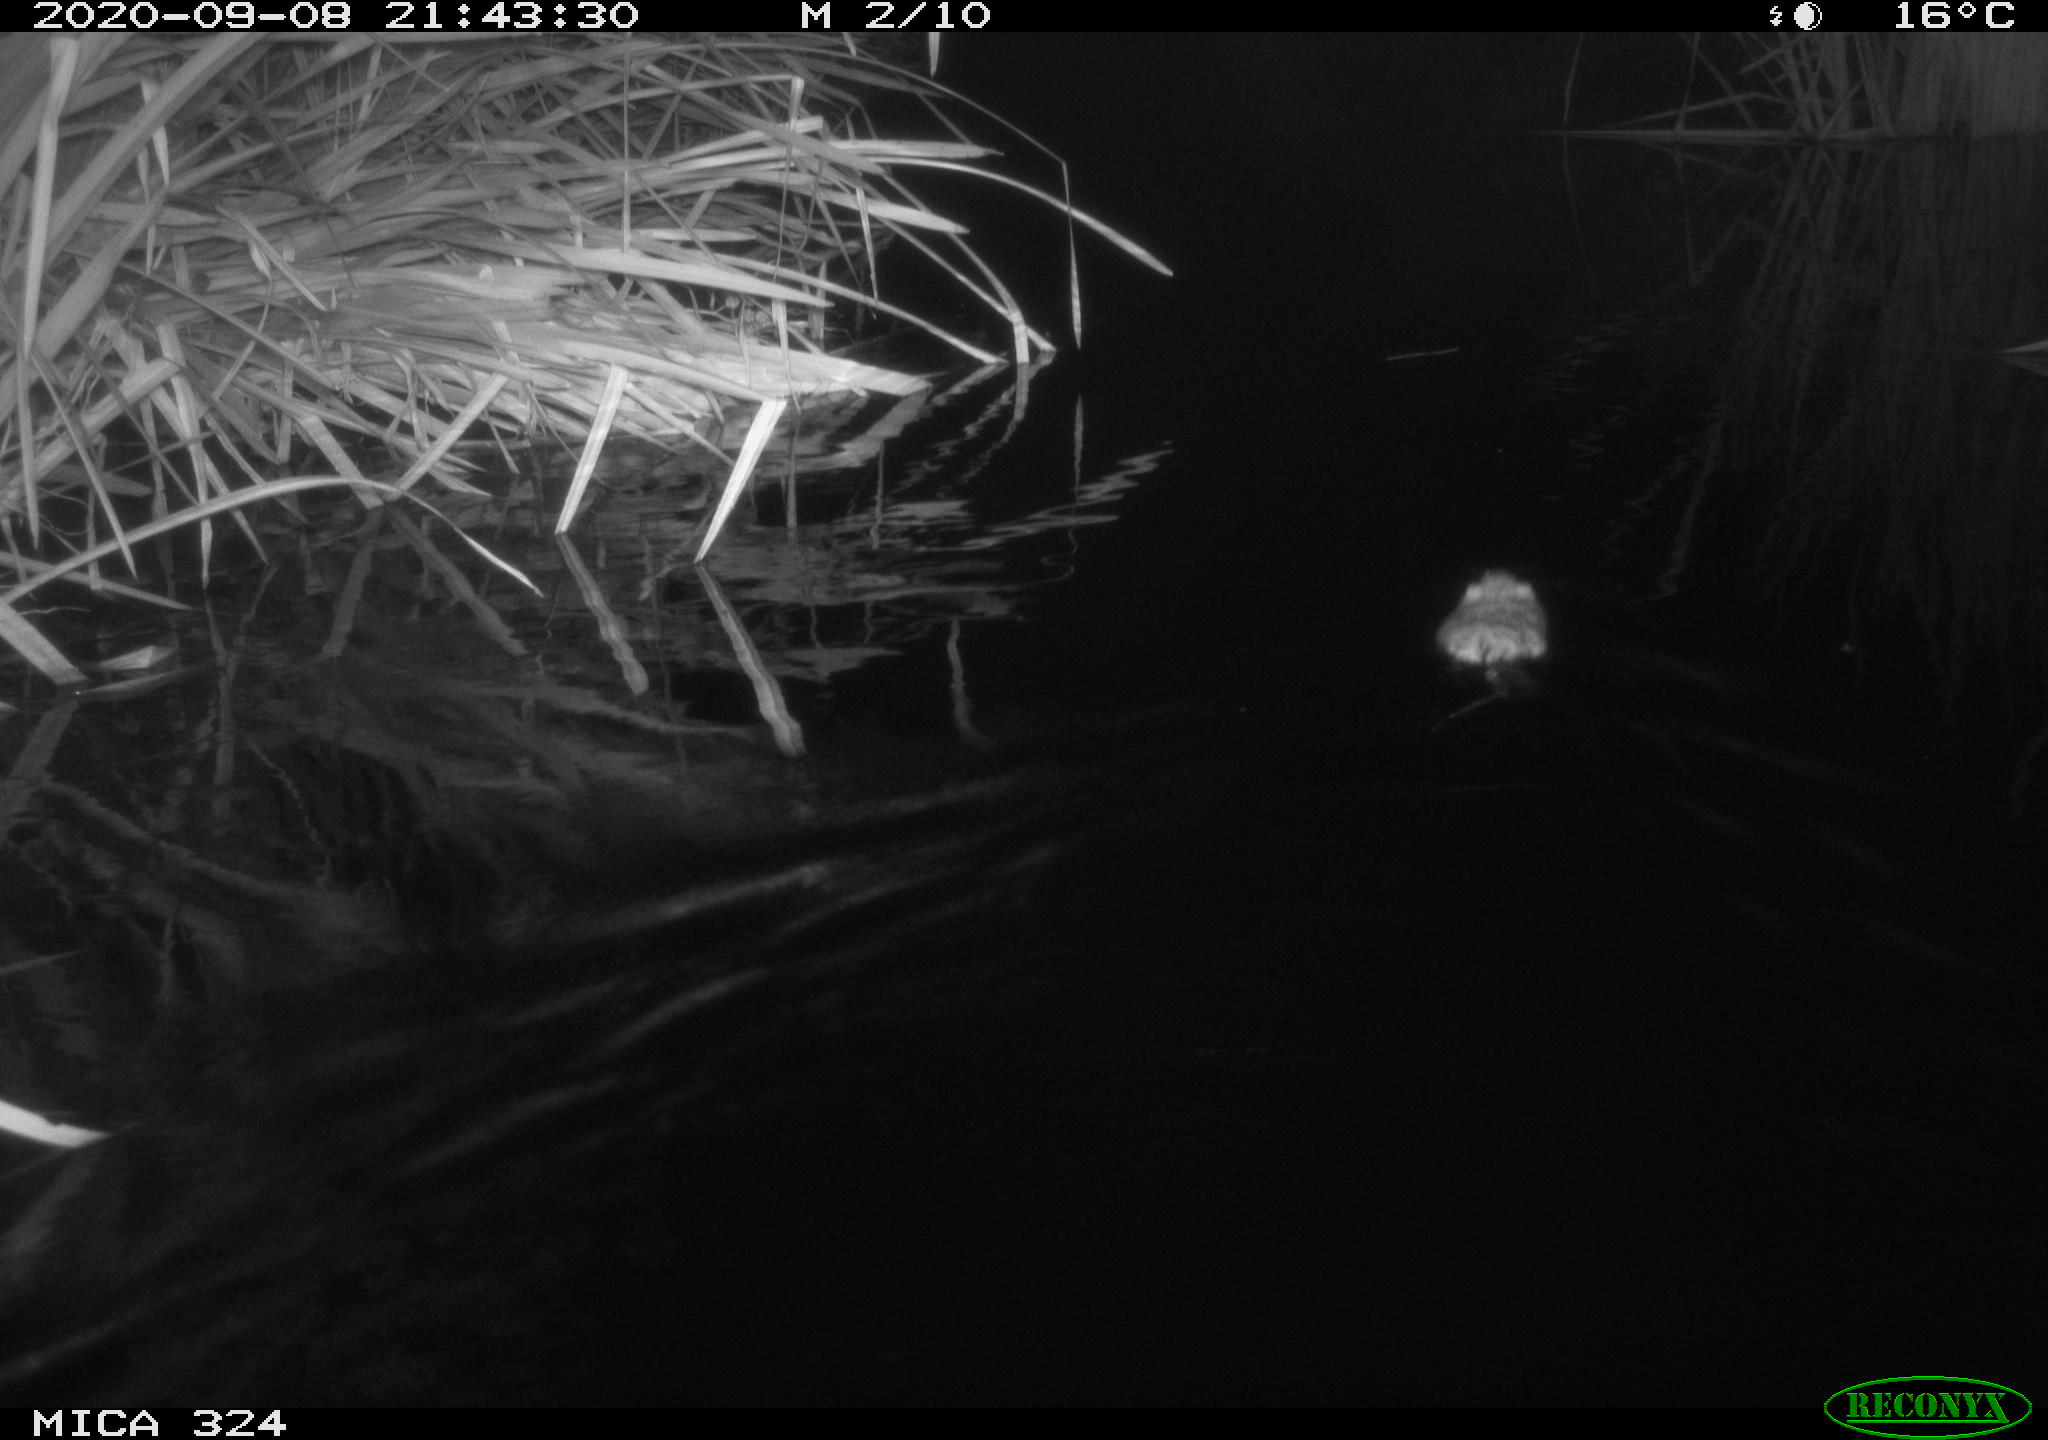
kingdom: Animalia
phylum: Chordata
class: Mammalia
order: Rodentia
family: Cricetidae
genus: Ondatra
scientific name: Ondatra zibethicus
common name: Muskrat
